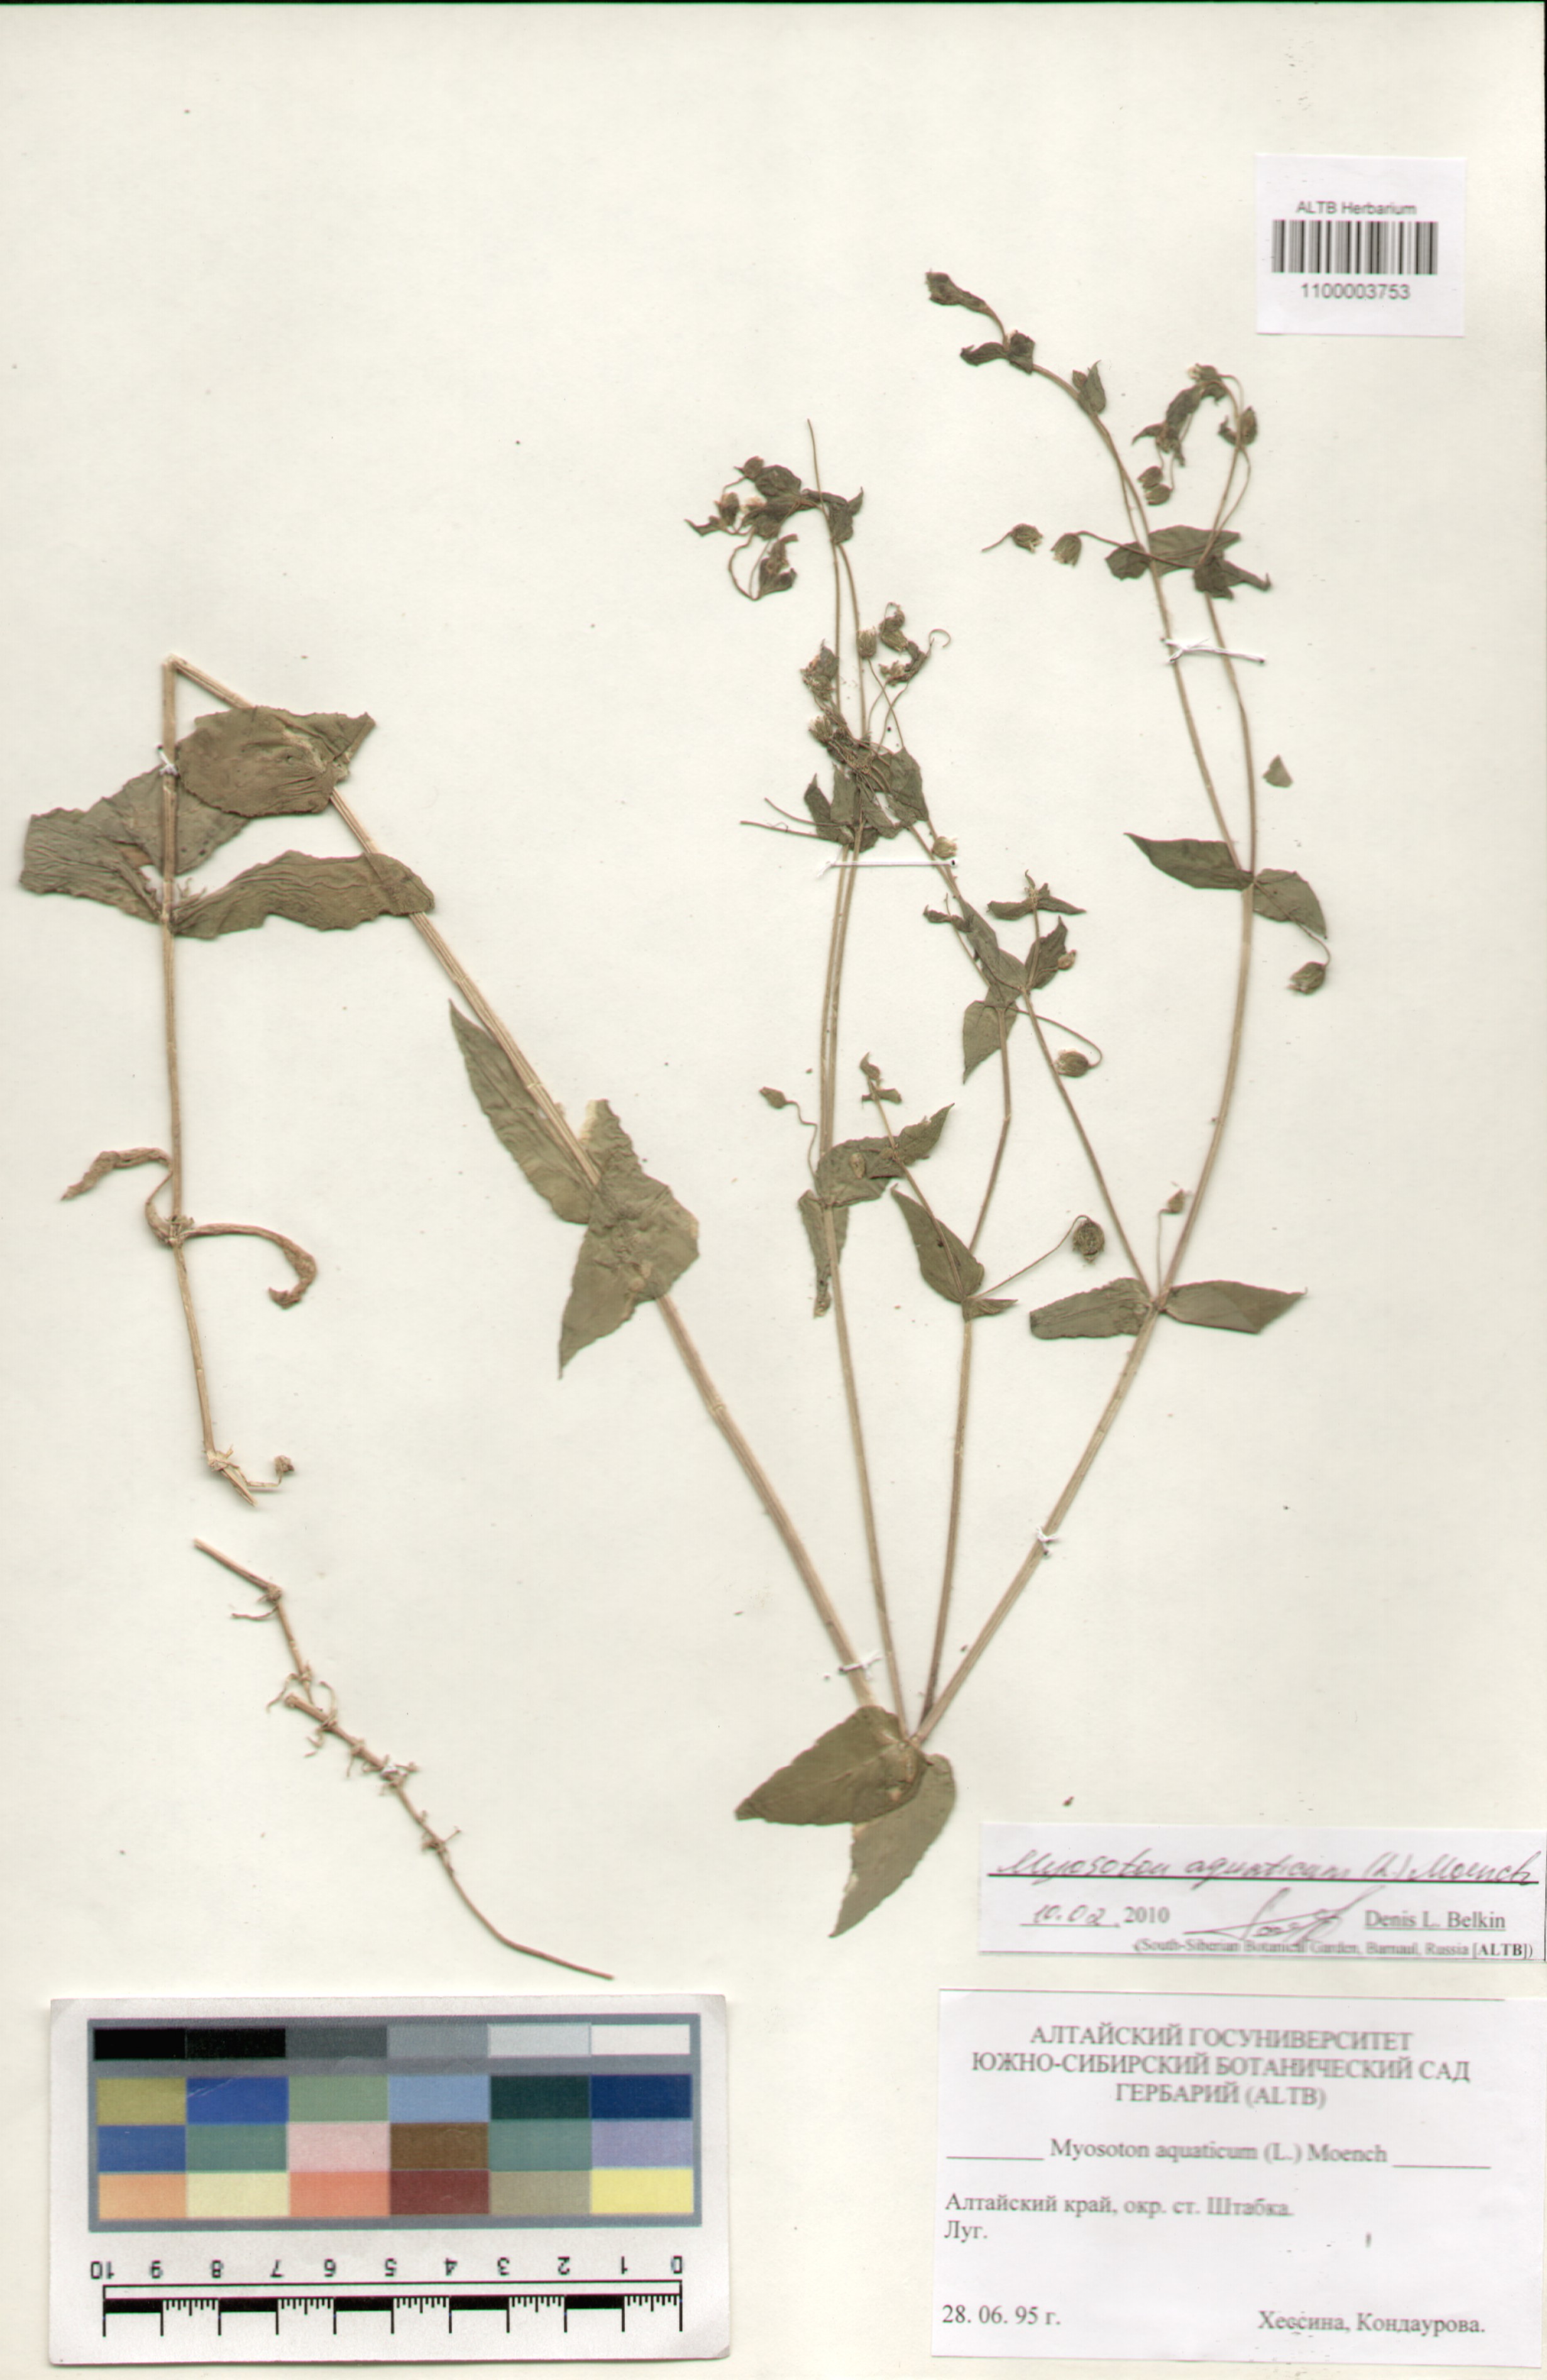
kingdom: Plantae
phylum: Tracheophyta
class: Magnoliopsida
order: Caryophyllales
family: Caryophyllaceae
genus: Stellaria
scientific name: Stellaria aquatica
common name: Water chickweed
